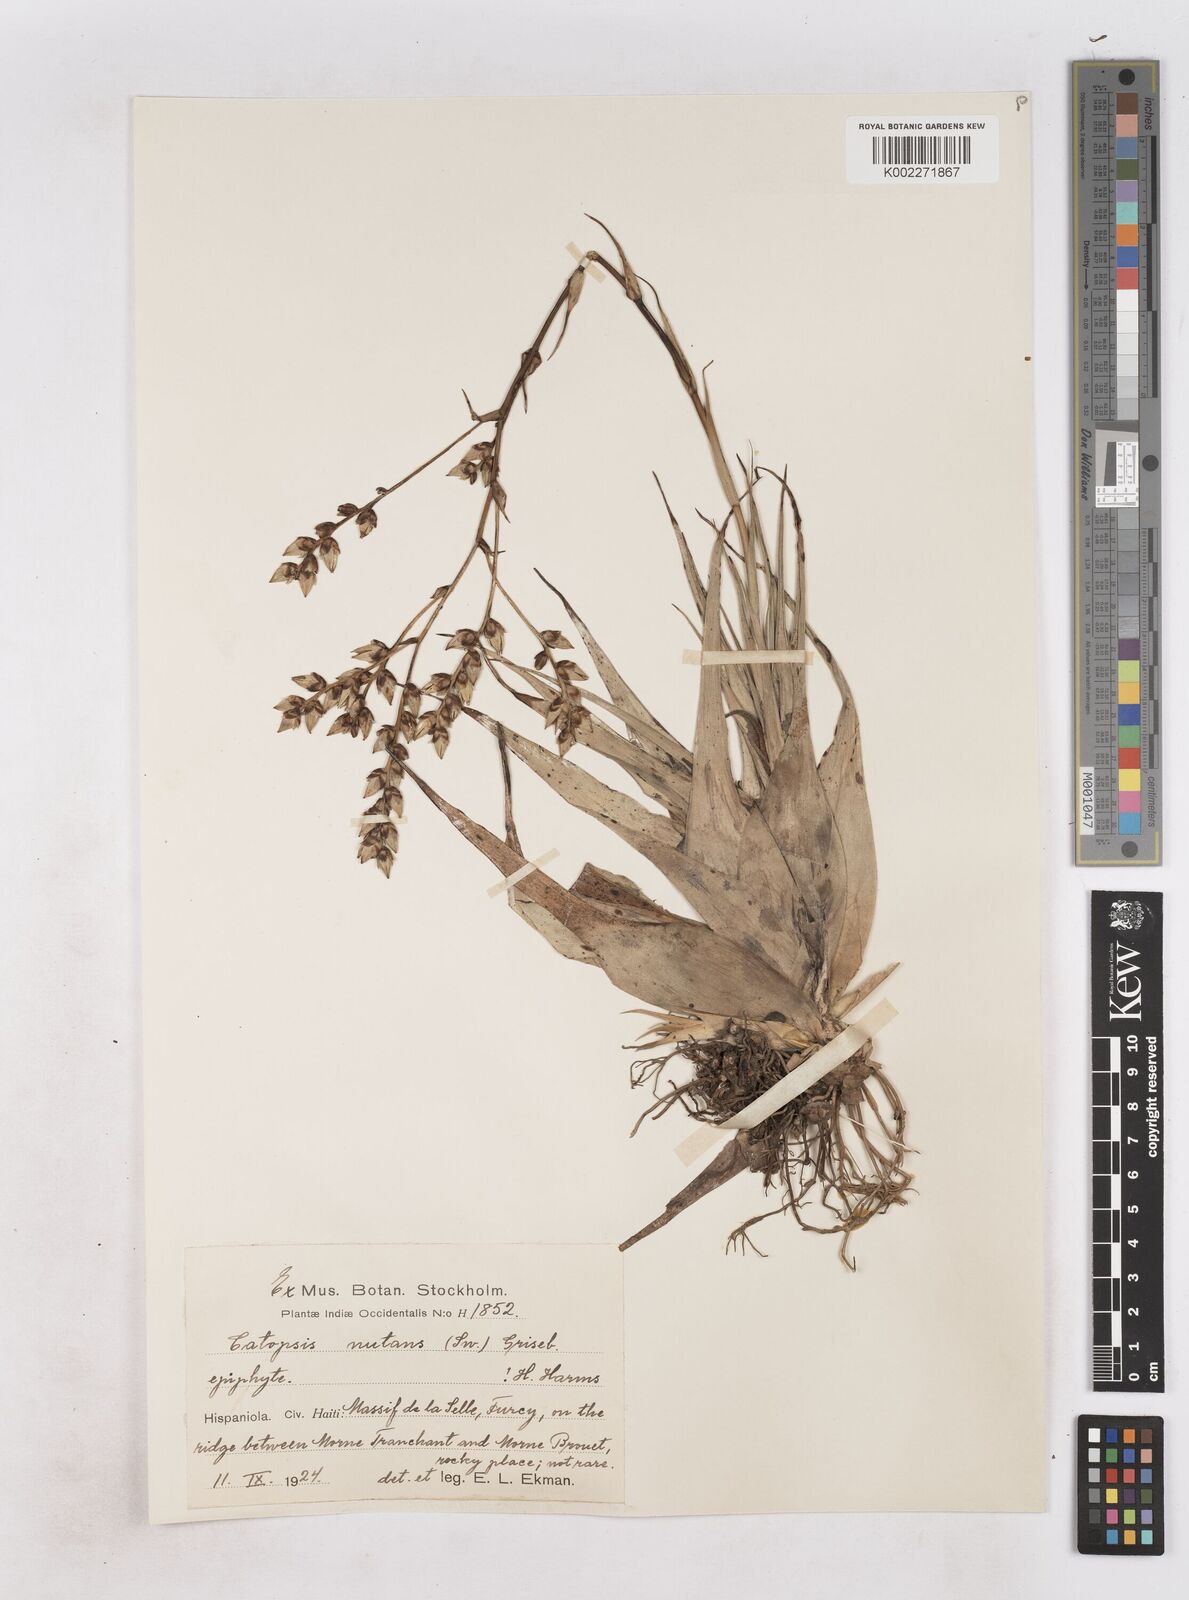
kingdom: Plantae
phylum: Tracheophyta
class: Liliopsida
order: Poales
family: Bromeliaceae
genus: Catopsis
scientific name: Catopsis nutans
